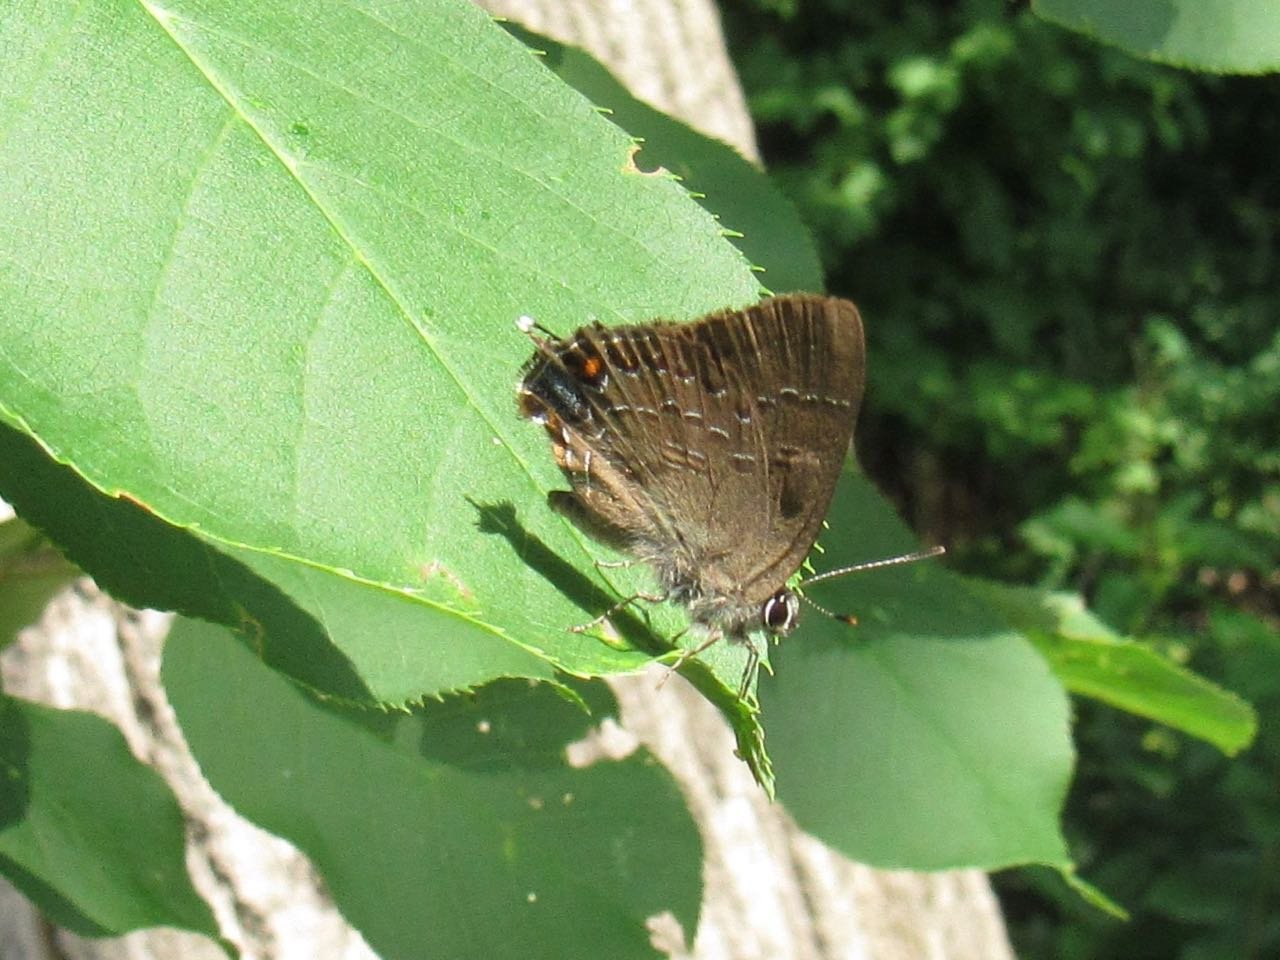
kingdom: Animalia
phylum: Arthropoda
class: Insecta
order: Lepidoptera
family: Lycaenidae
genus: Satyrium
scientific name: Satyrium calanus
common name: Banded Hairstreak
